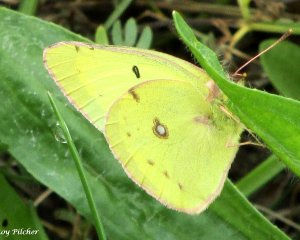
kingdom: Animalia
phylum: Arthropoda
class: Insecta
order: Lepidoptera
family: Pieridae
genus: Colias
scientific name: Colias philodice
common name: Clouded Sulphur
